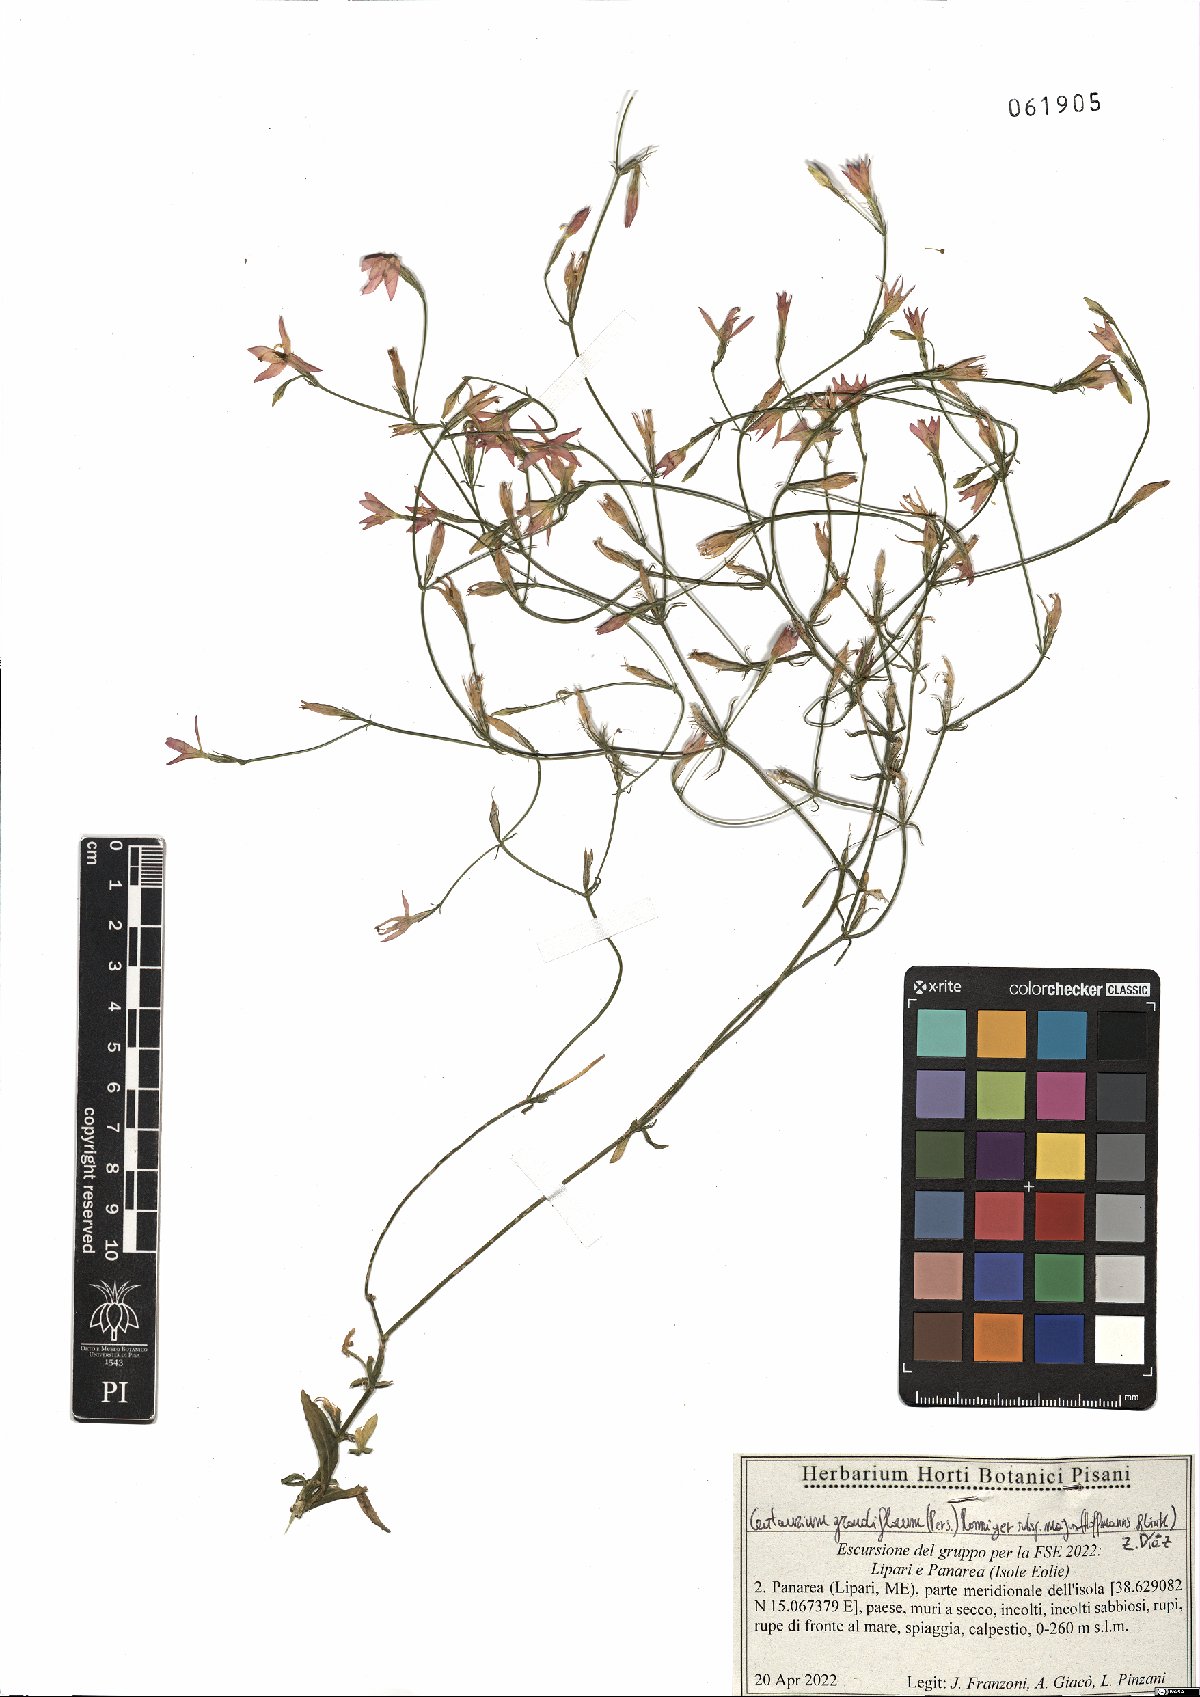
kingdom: Plantae
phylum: Tracheophyta
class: Magnoliopsida
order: Gentianales
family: Gentianaceae
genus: Centaurium
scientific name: Centaurium grandiflorum
